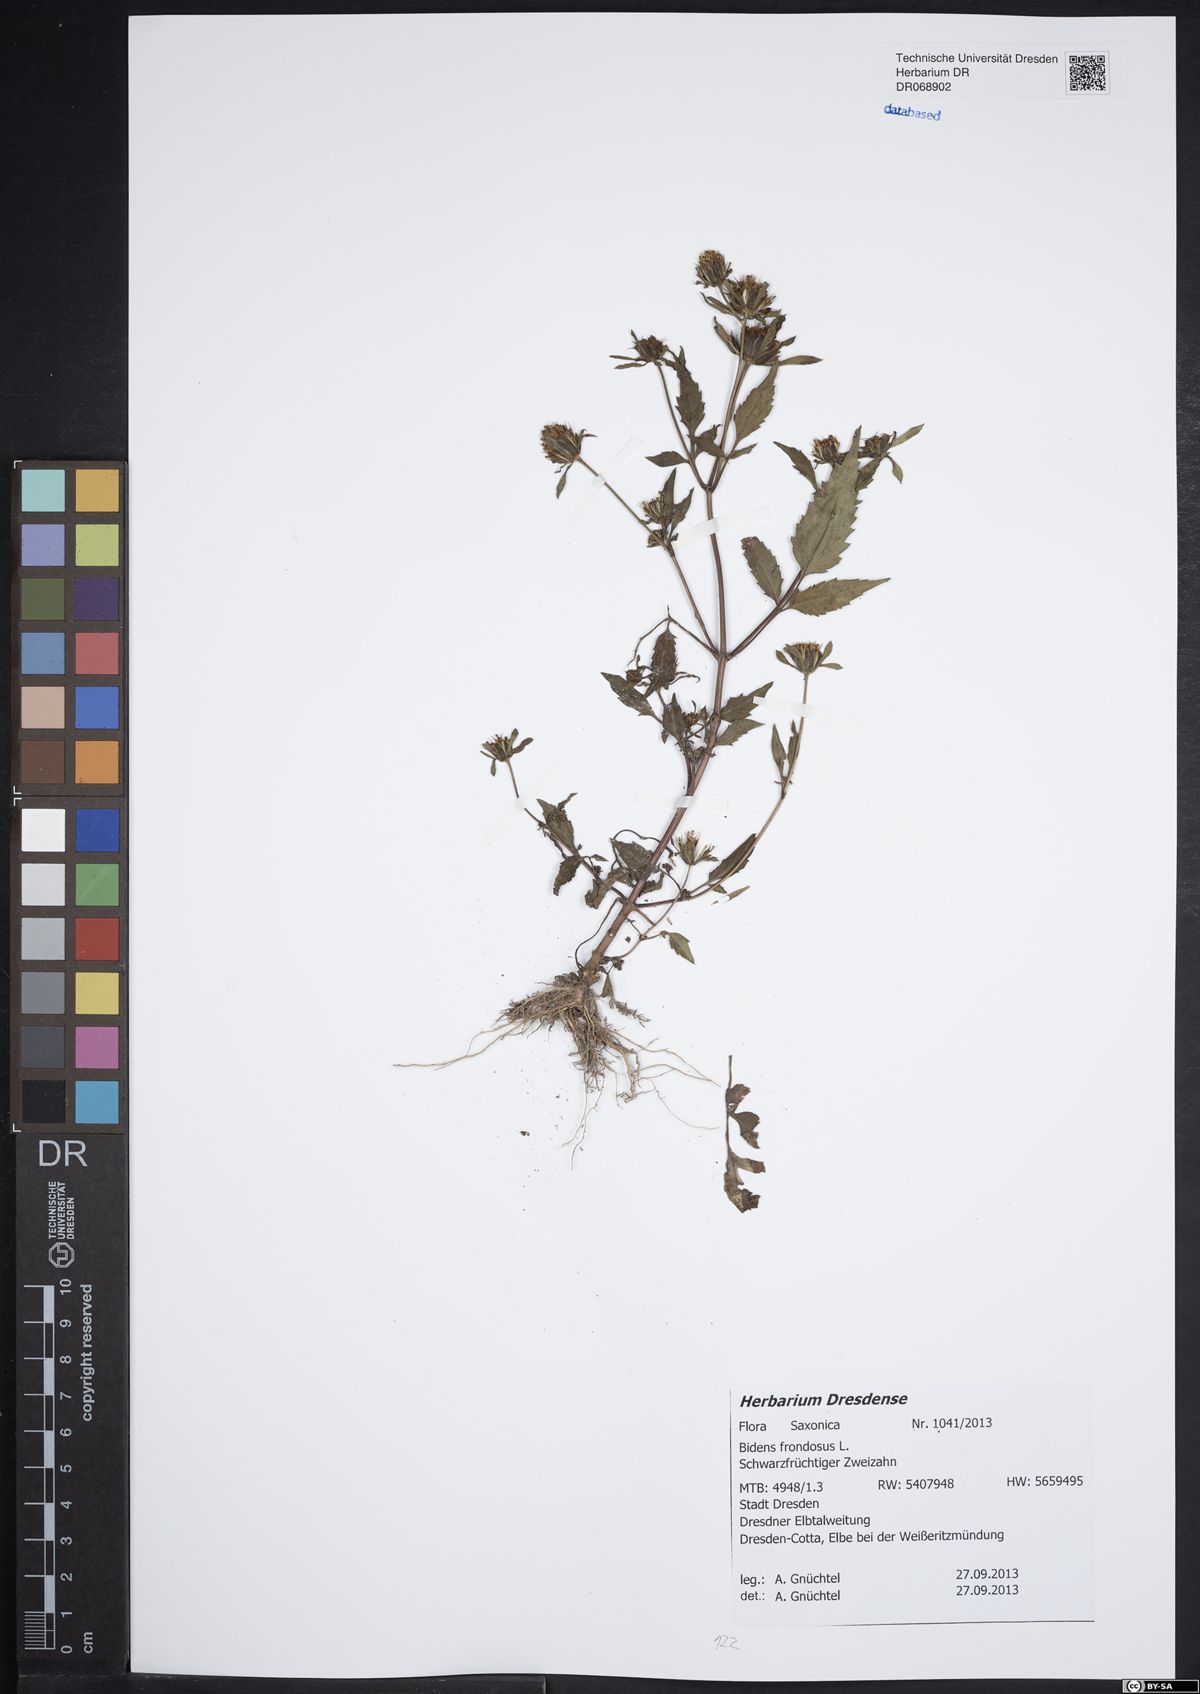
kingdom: Plantae
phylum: Tracheophyta
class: Magnoliopsida
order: Asterales
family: Asteraceae
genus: Bidens
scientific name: Bidens frondosa
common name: Beggarticks
